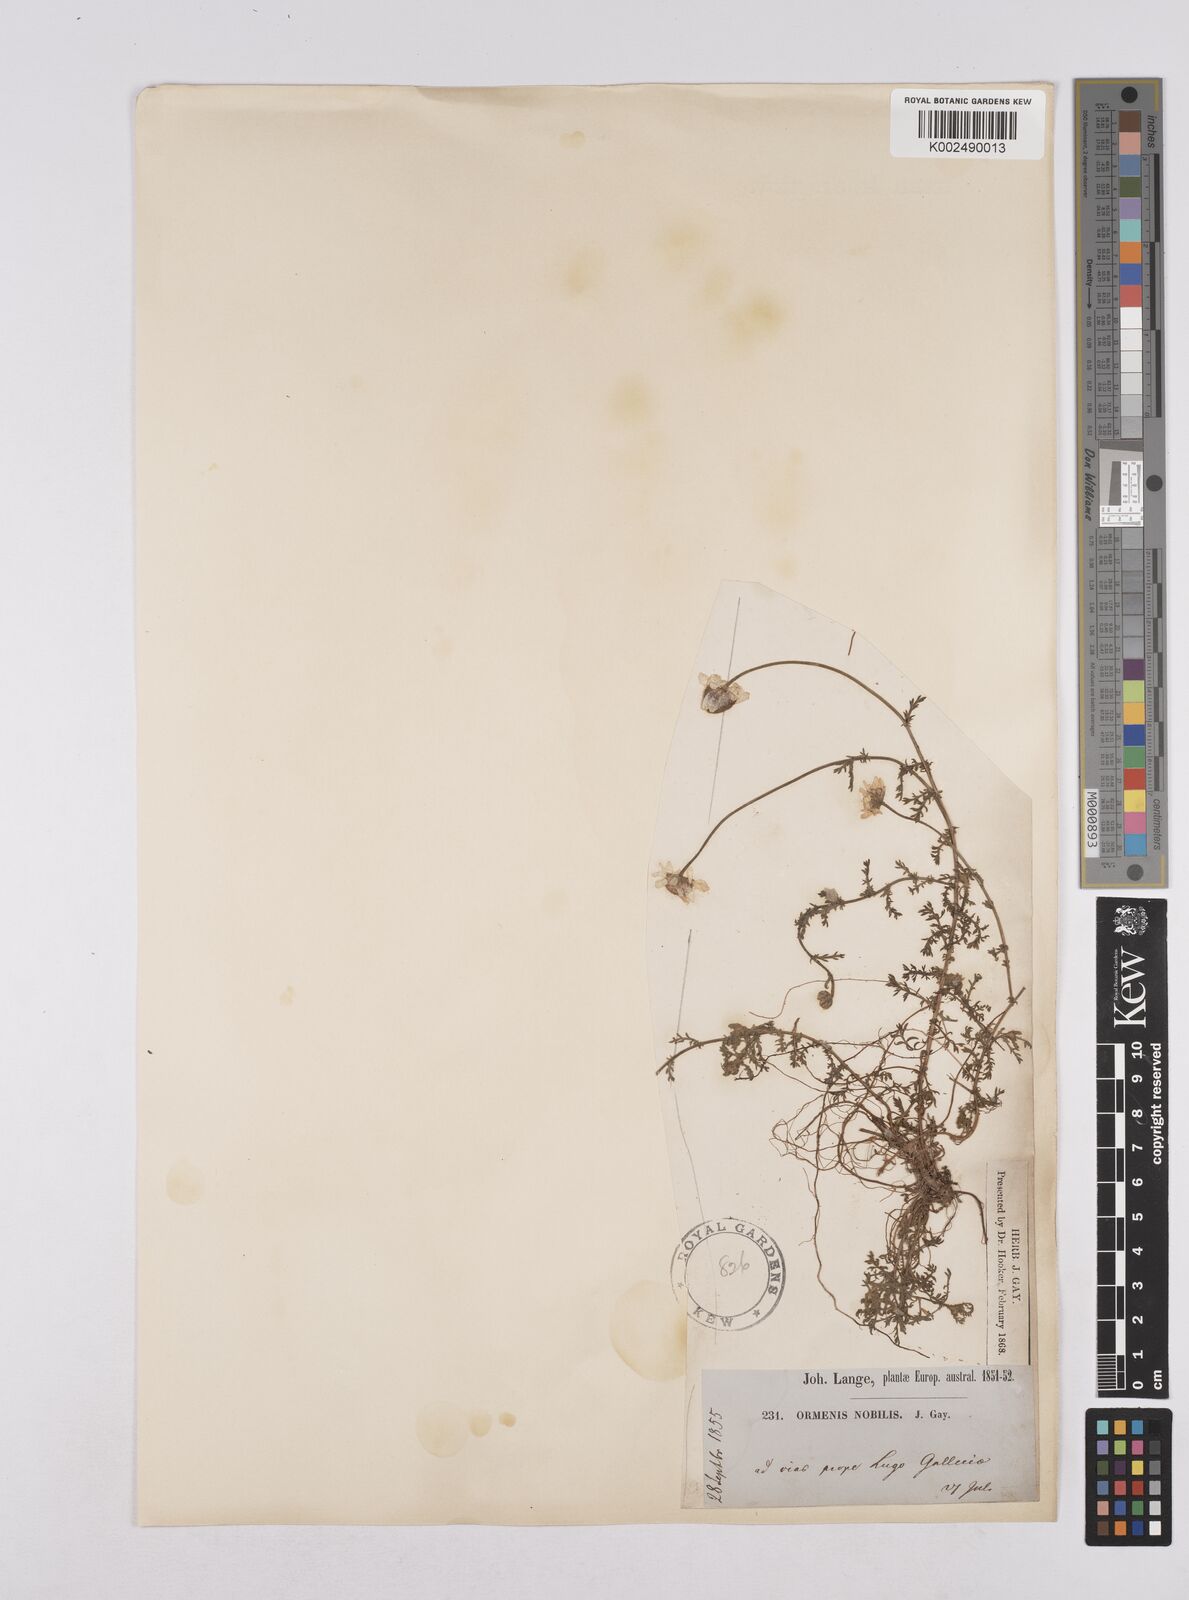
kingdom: Plantae
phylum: Tracheophyta
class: Magnoliopsida
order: Asterales
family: Asteraceae
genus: Chamaemelum
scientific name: Chamaemelum
